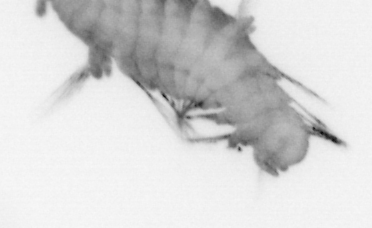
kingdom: Animalia
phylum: Annelida
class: Polychaeta
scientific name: Polychaeta
